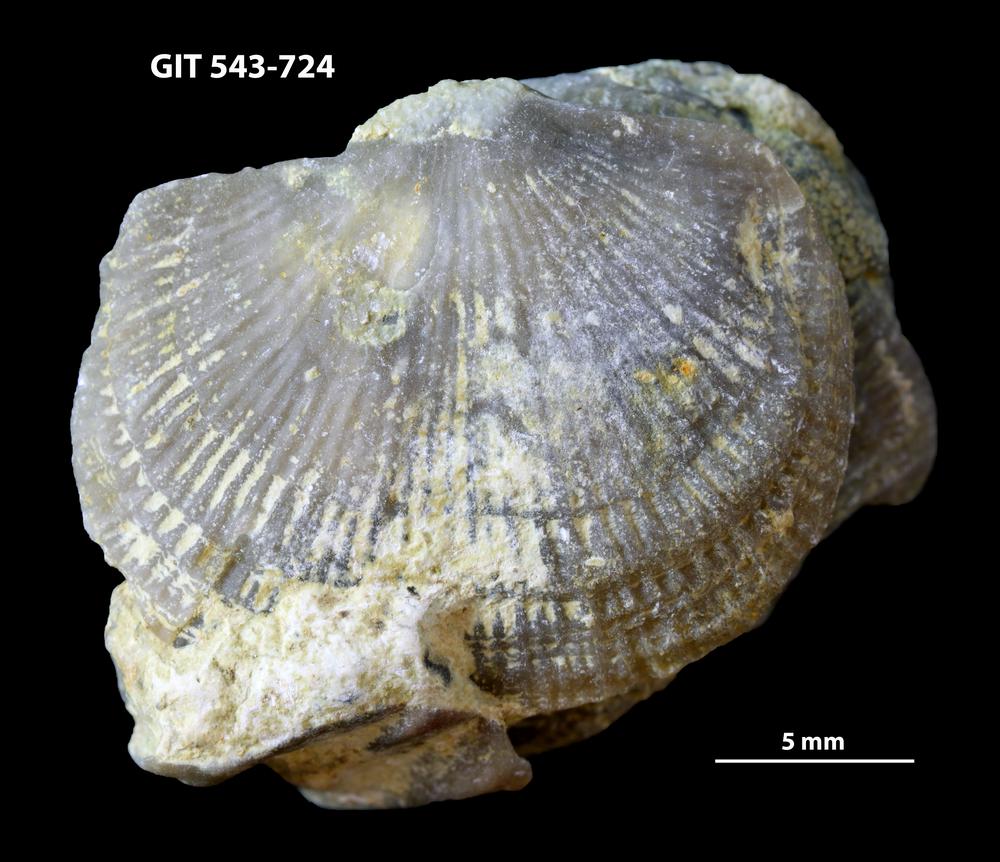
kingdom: Animalia
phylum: Brachiopoda
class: Rhynchonellata
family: Clitambonitidae
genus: Vellamo
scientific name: Vellamo oandoensis
